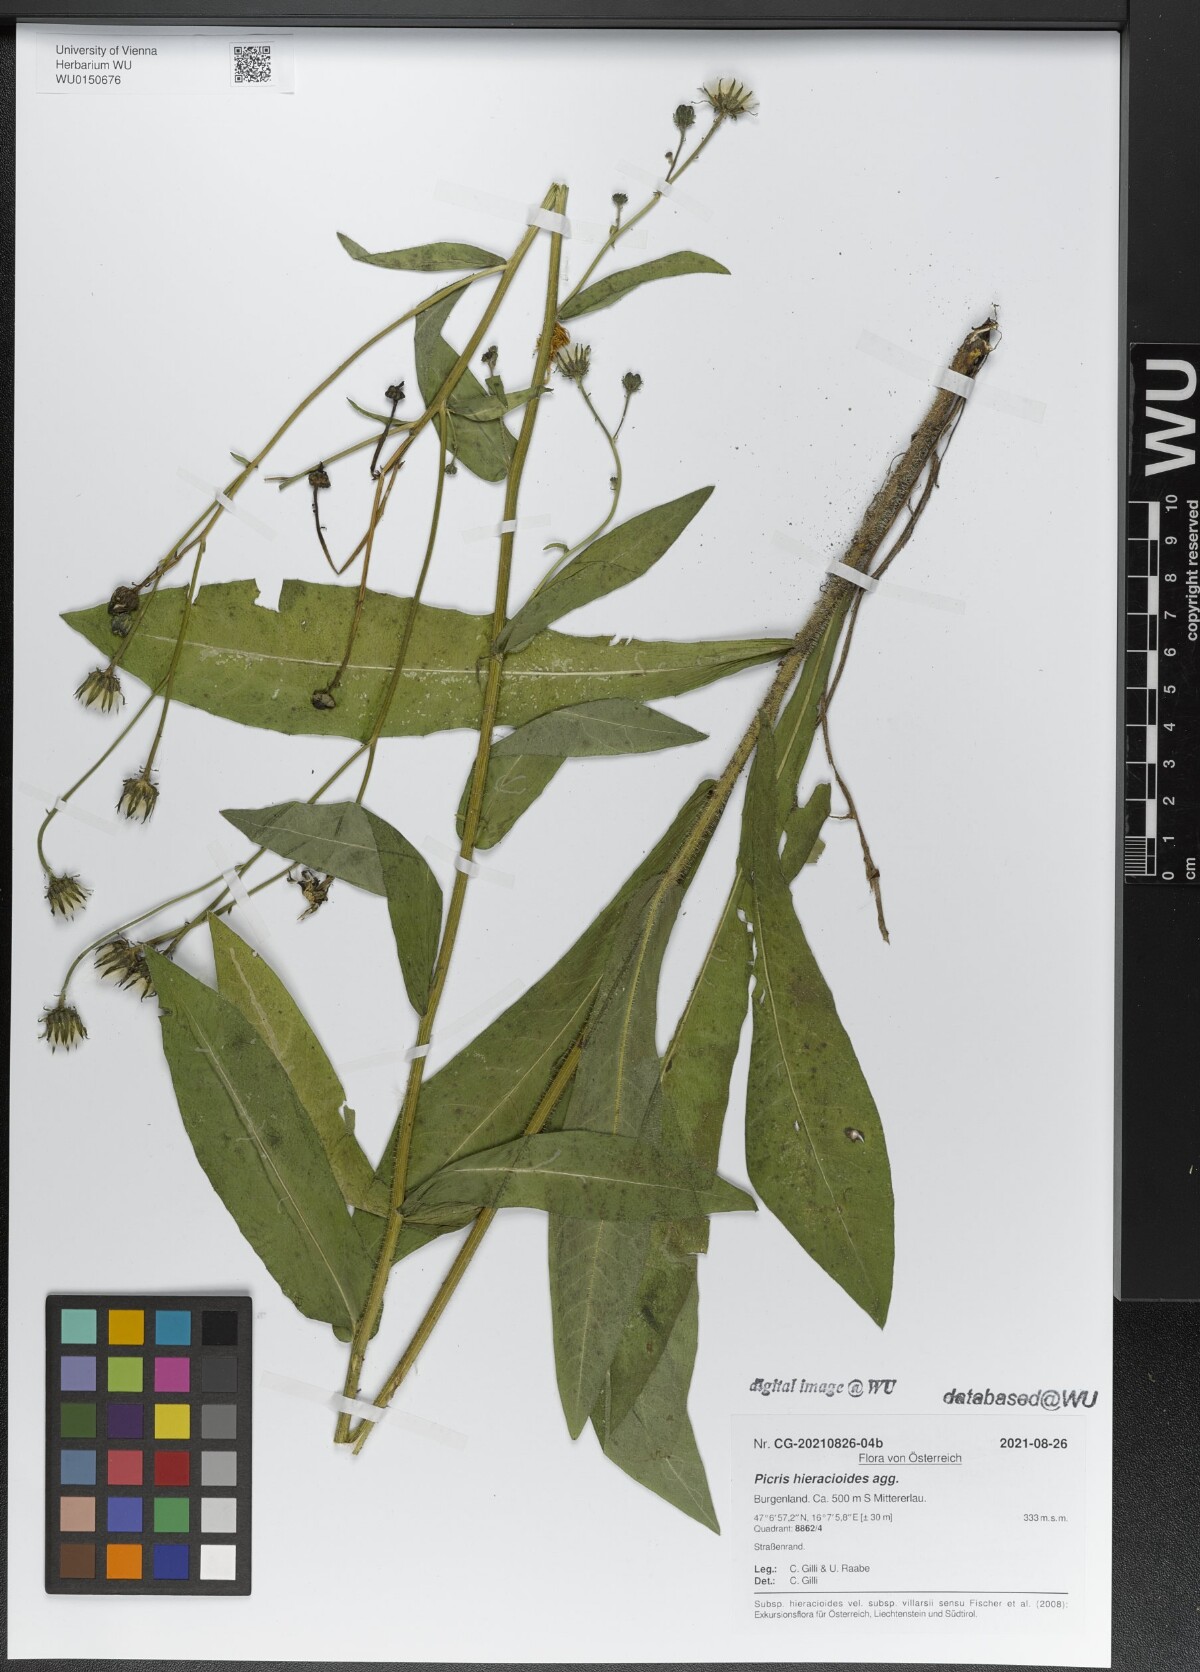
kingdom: Plantae
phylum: Tracheophyta
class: Magnoliopsida
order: Asterales
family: Asteraceae
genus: Picris
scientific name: Picris hieracioides
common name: Hawkweed oxtongue
